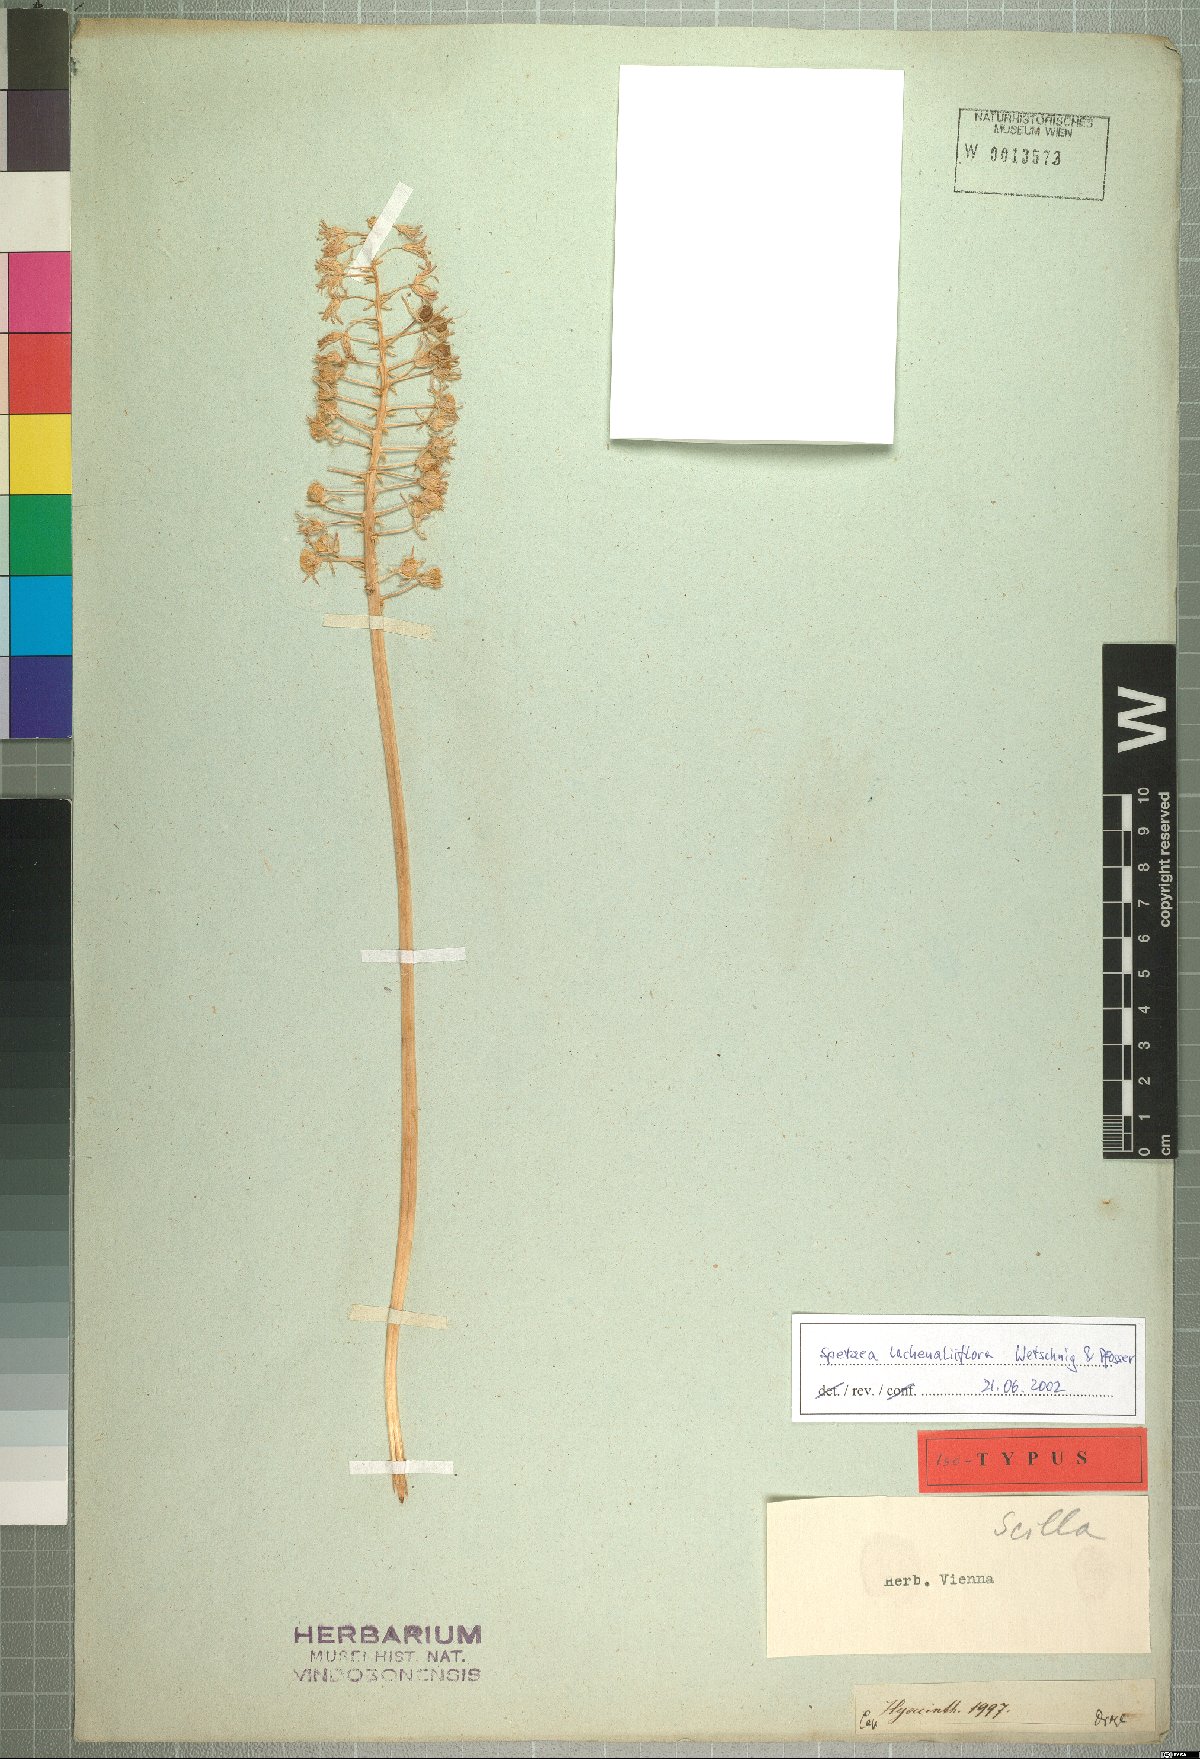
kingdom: Plantae
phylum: Tracheophyta
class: Liliopsida
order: Asparagales
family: Asparagaceae
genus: Spetaea
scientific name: Spetaea lachenaliiflora
